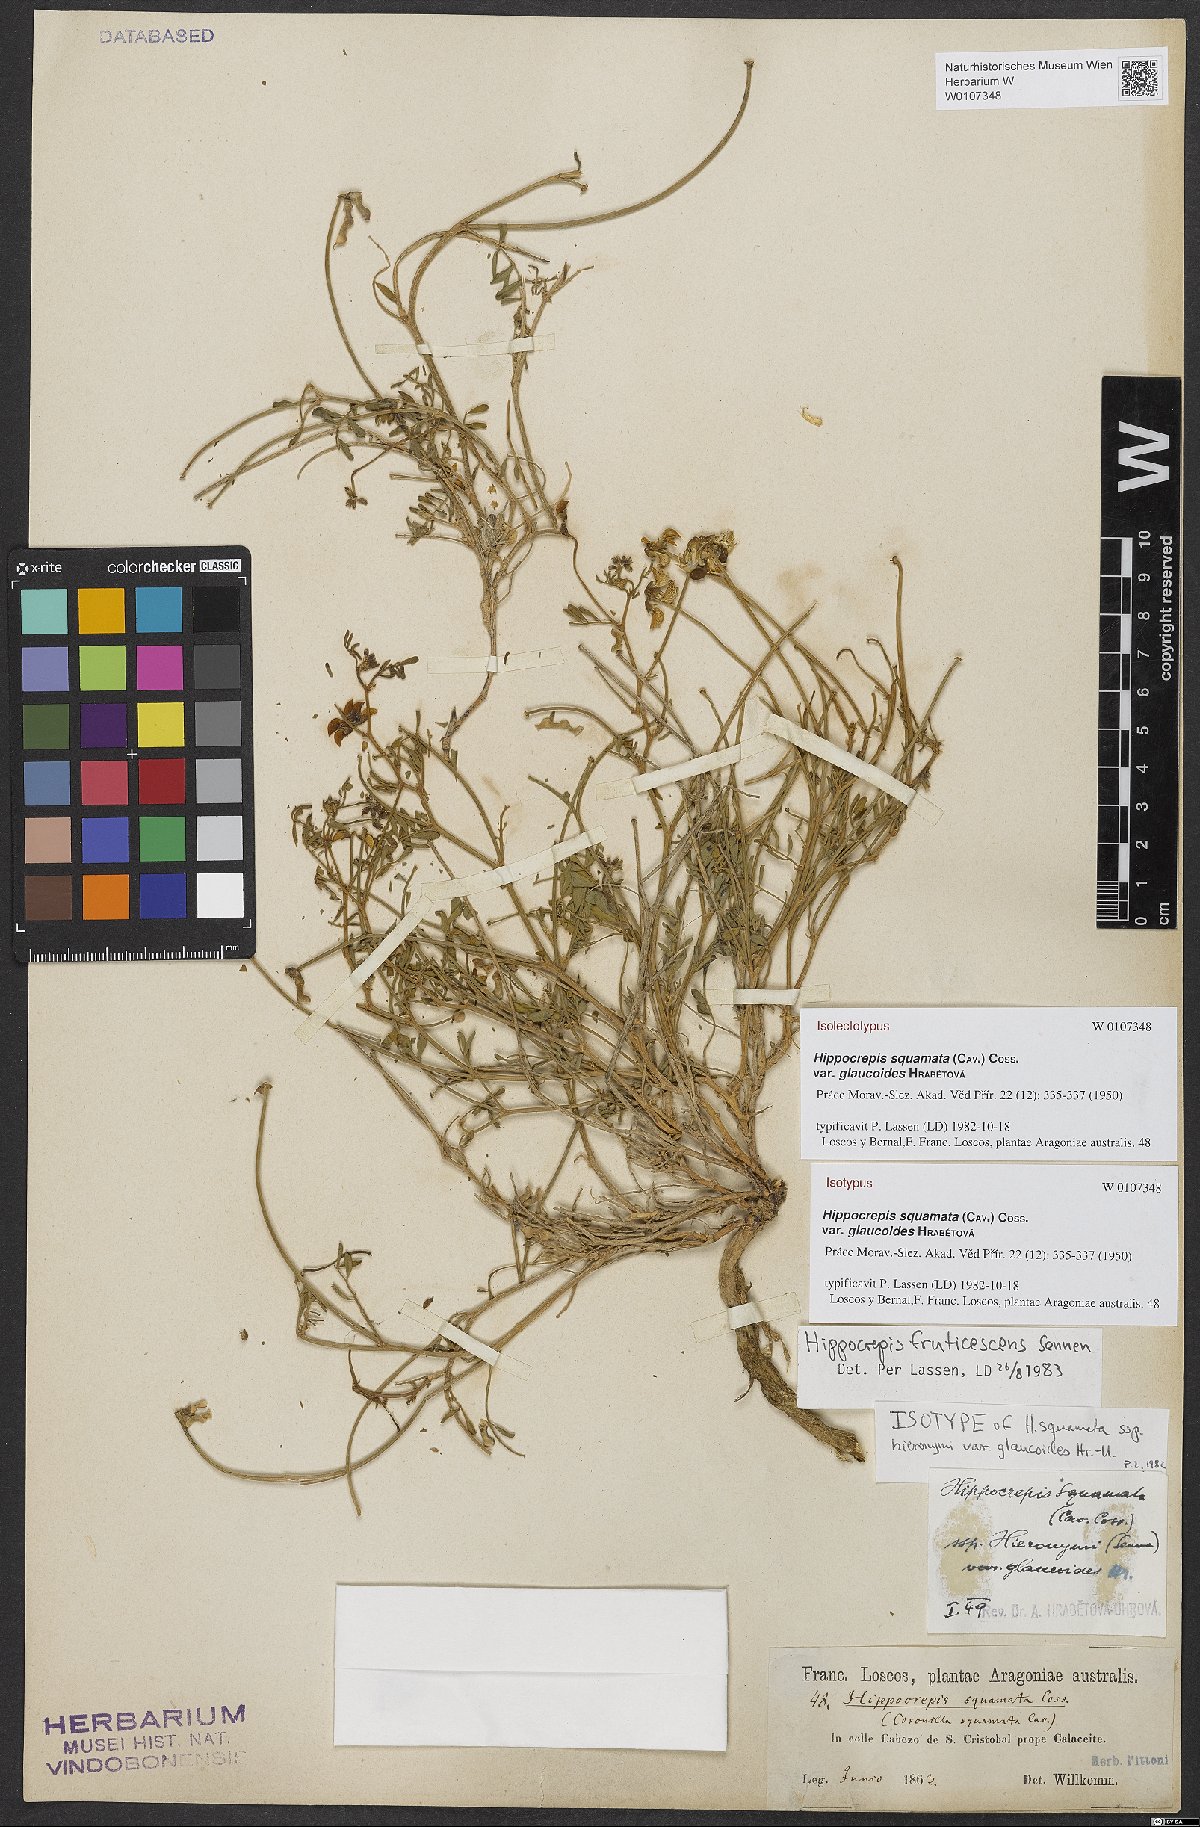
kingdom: Plantae
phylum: Tracheophyta
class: Magnoliopsida
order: Fabales
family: Fabaceae
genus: Hippocrepis
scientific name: Hippocrepis squamata
